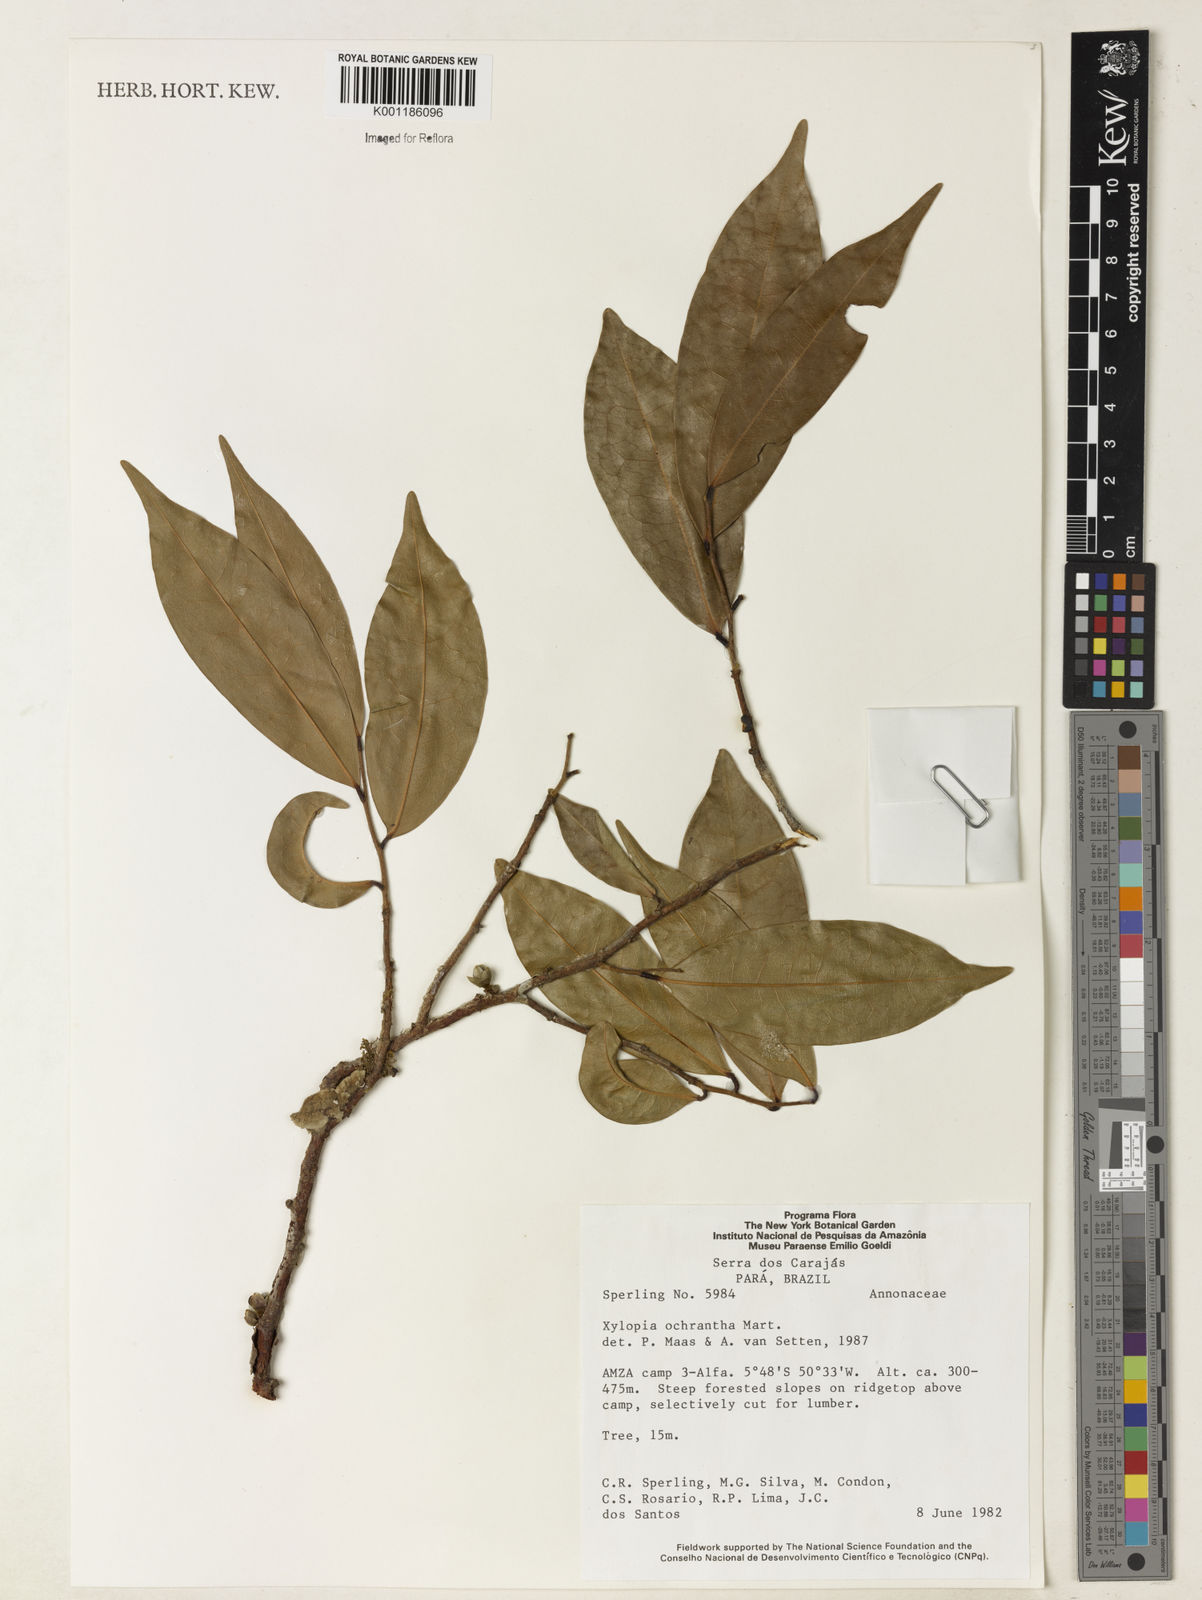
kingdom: Plantae
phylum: Tracheophyta
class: Magnoliopsida
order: Magnoliales
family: Annonaceae
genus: Xylopia
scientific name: Xylopia ochrantha
